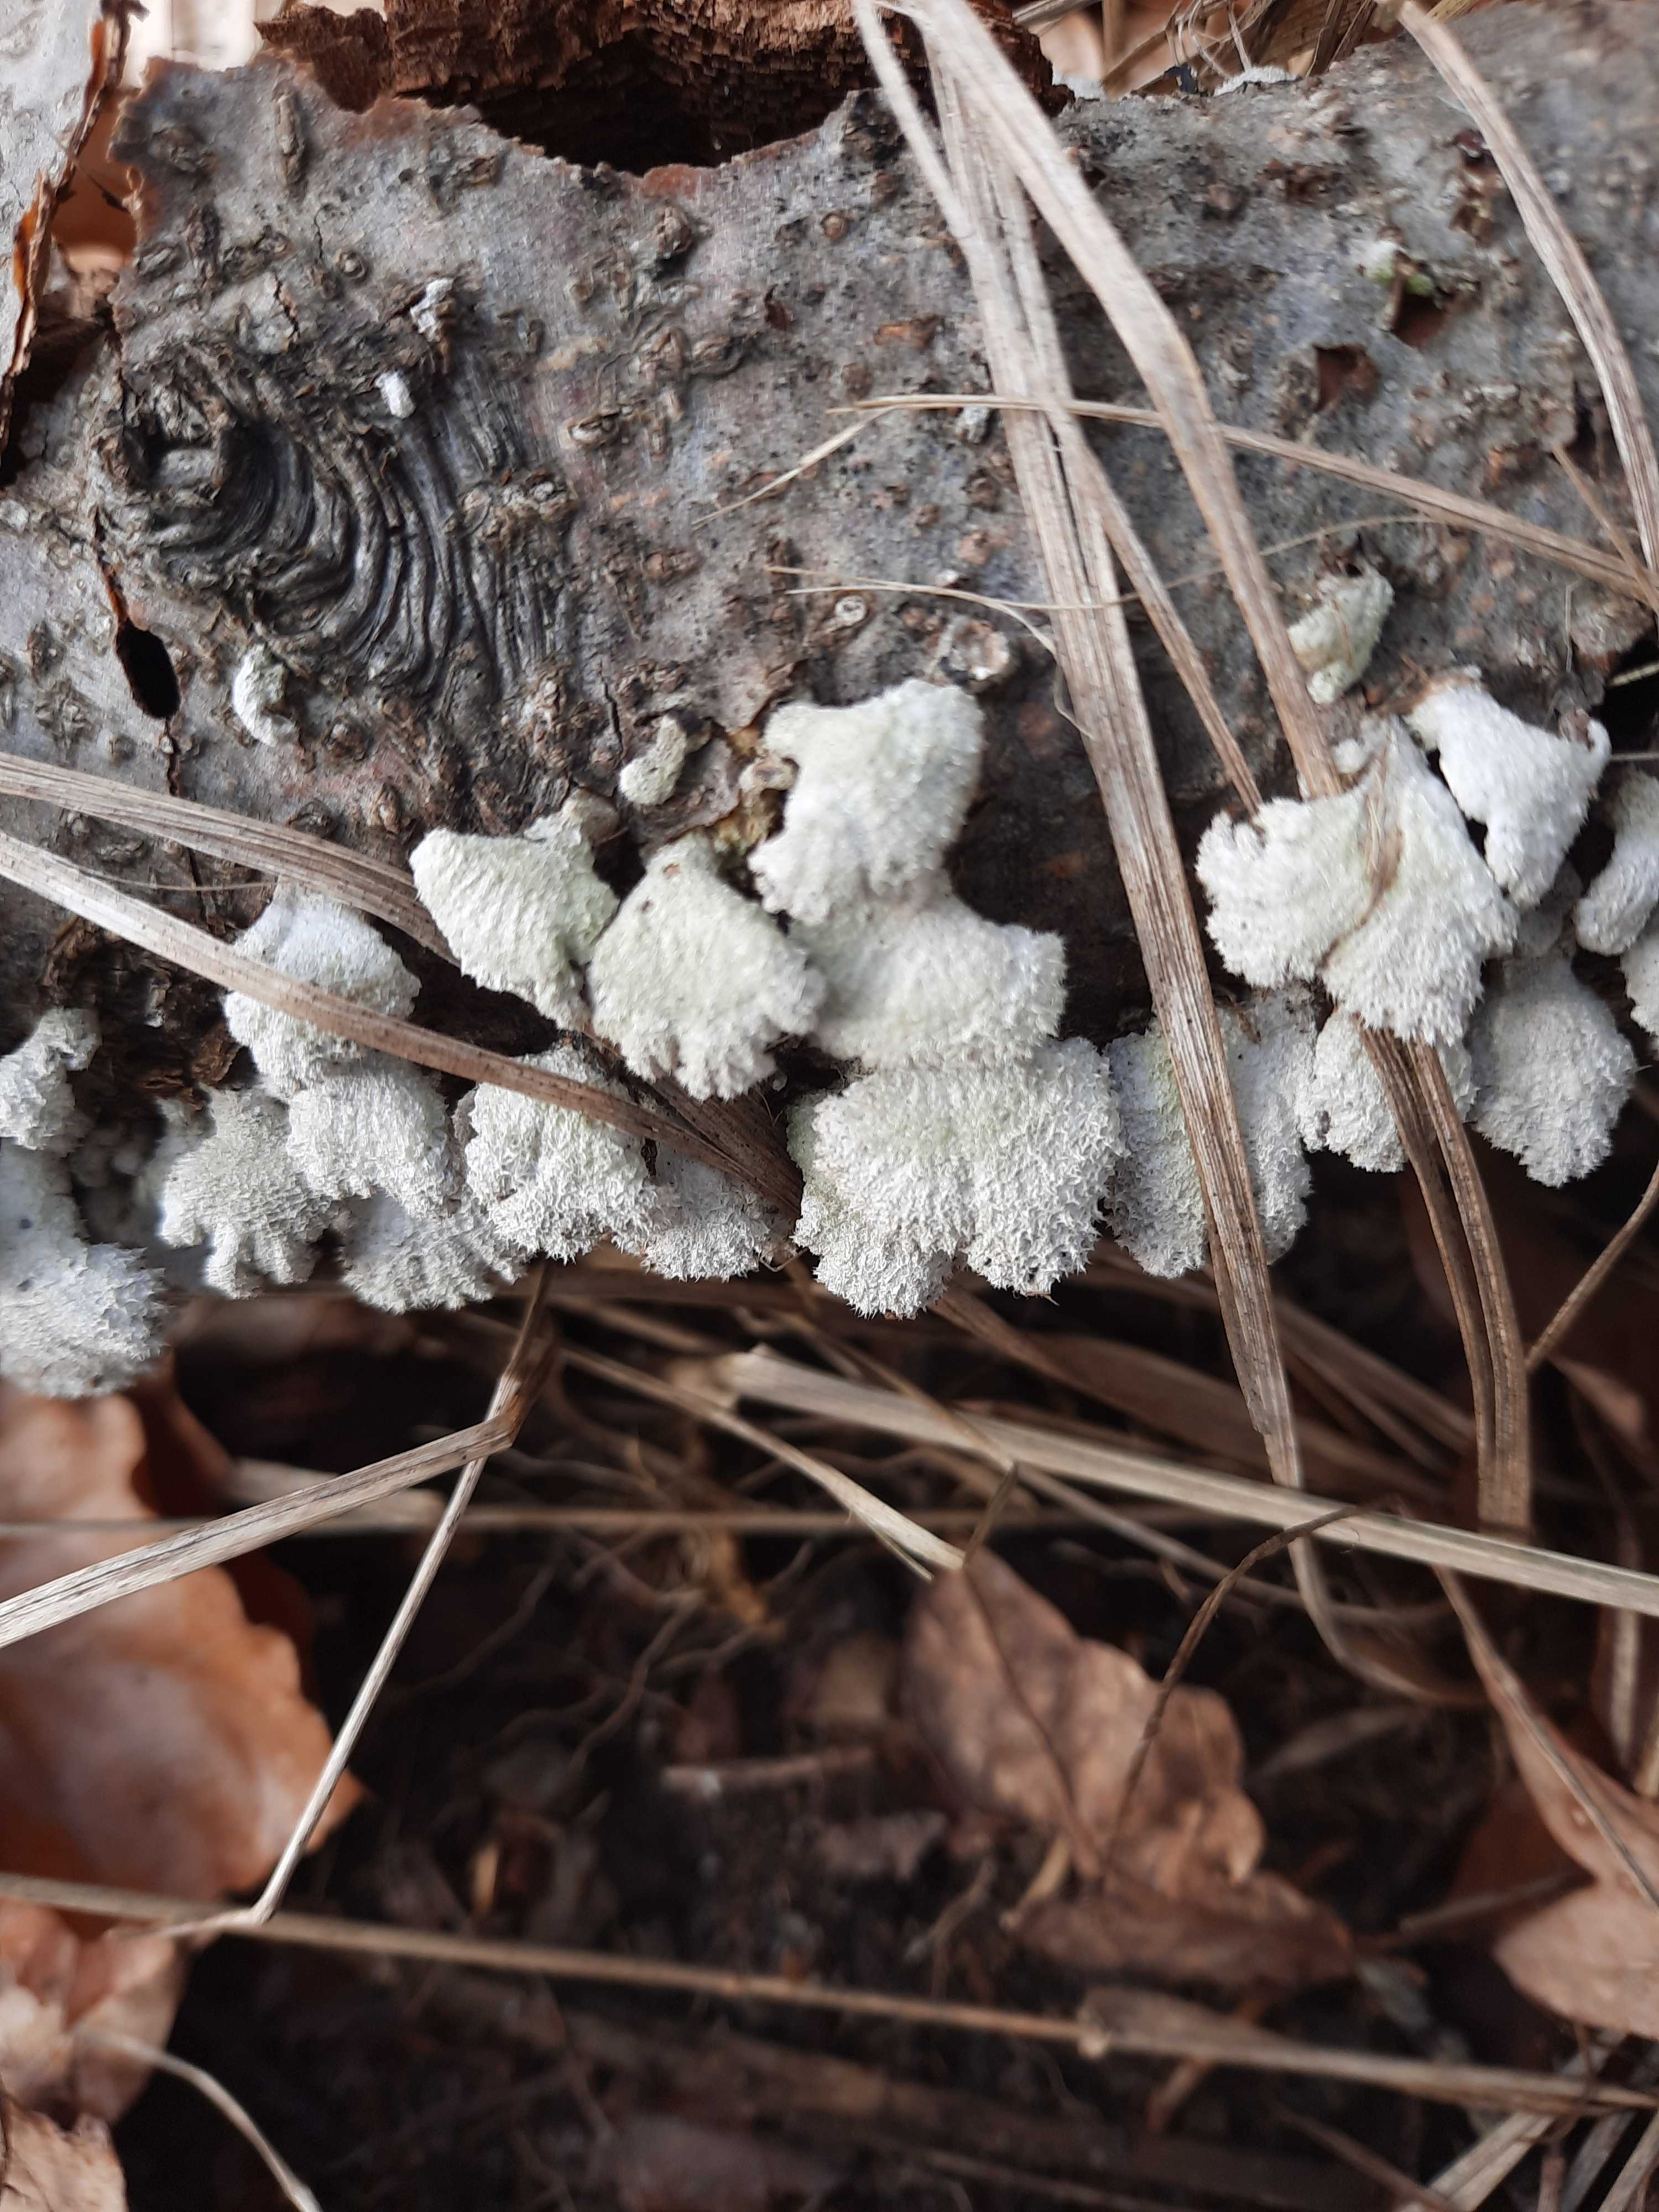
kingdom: Fungi
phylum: Basidiomycota
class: Agaricomycetes
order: Agaricales
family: Schizophyllaceae
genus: Schizophyllum
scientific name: Schizophyllum commune
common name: kløvblad
